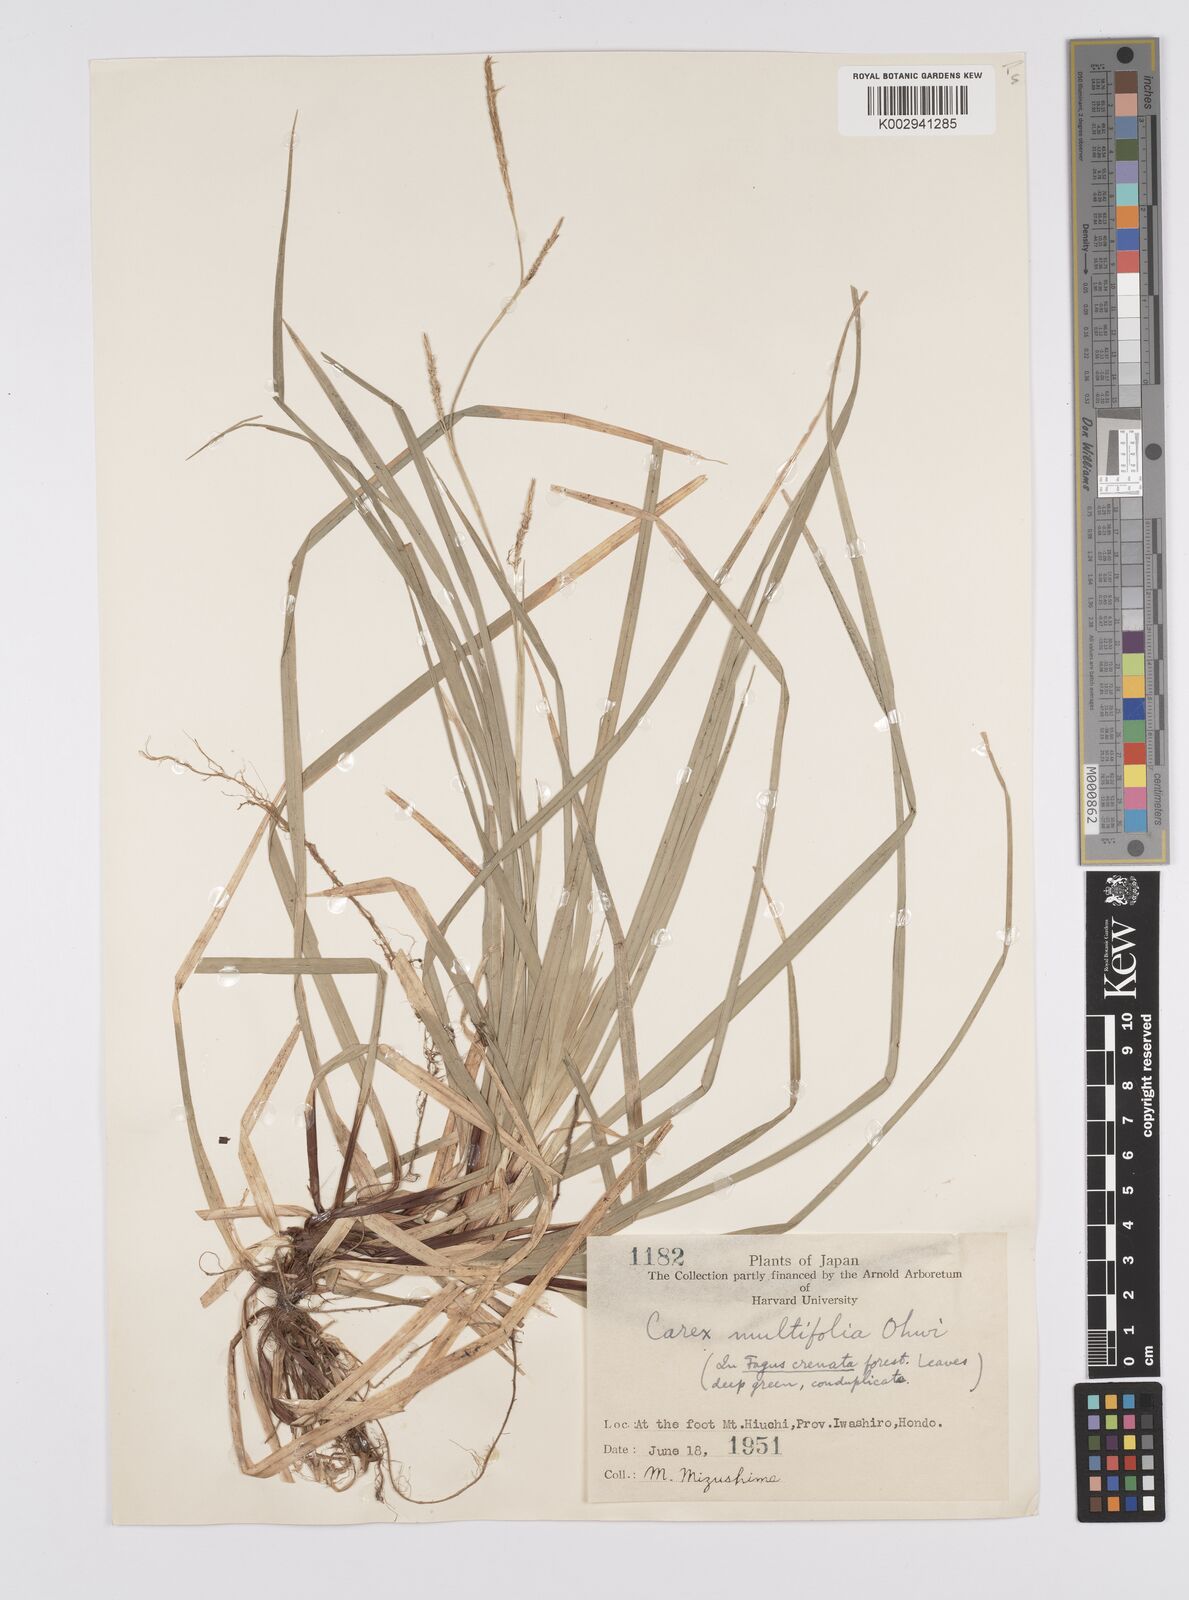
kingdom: Plantae
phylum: Tracheophyta
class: Liliopsida
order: Poales
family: Cyperaceae
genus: Carex
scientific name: Carex foliosissima
